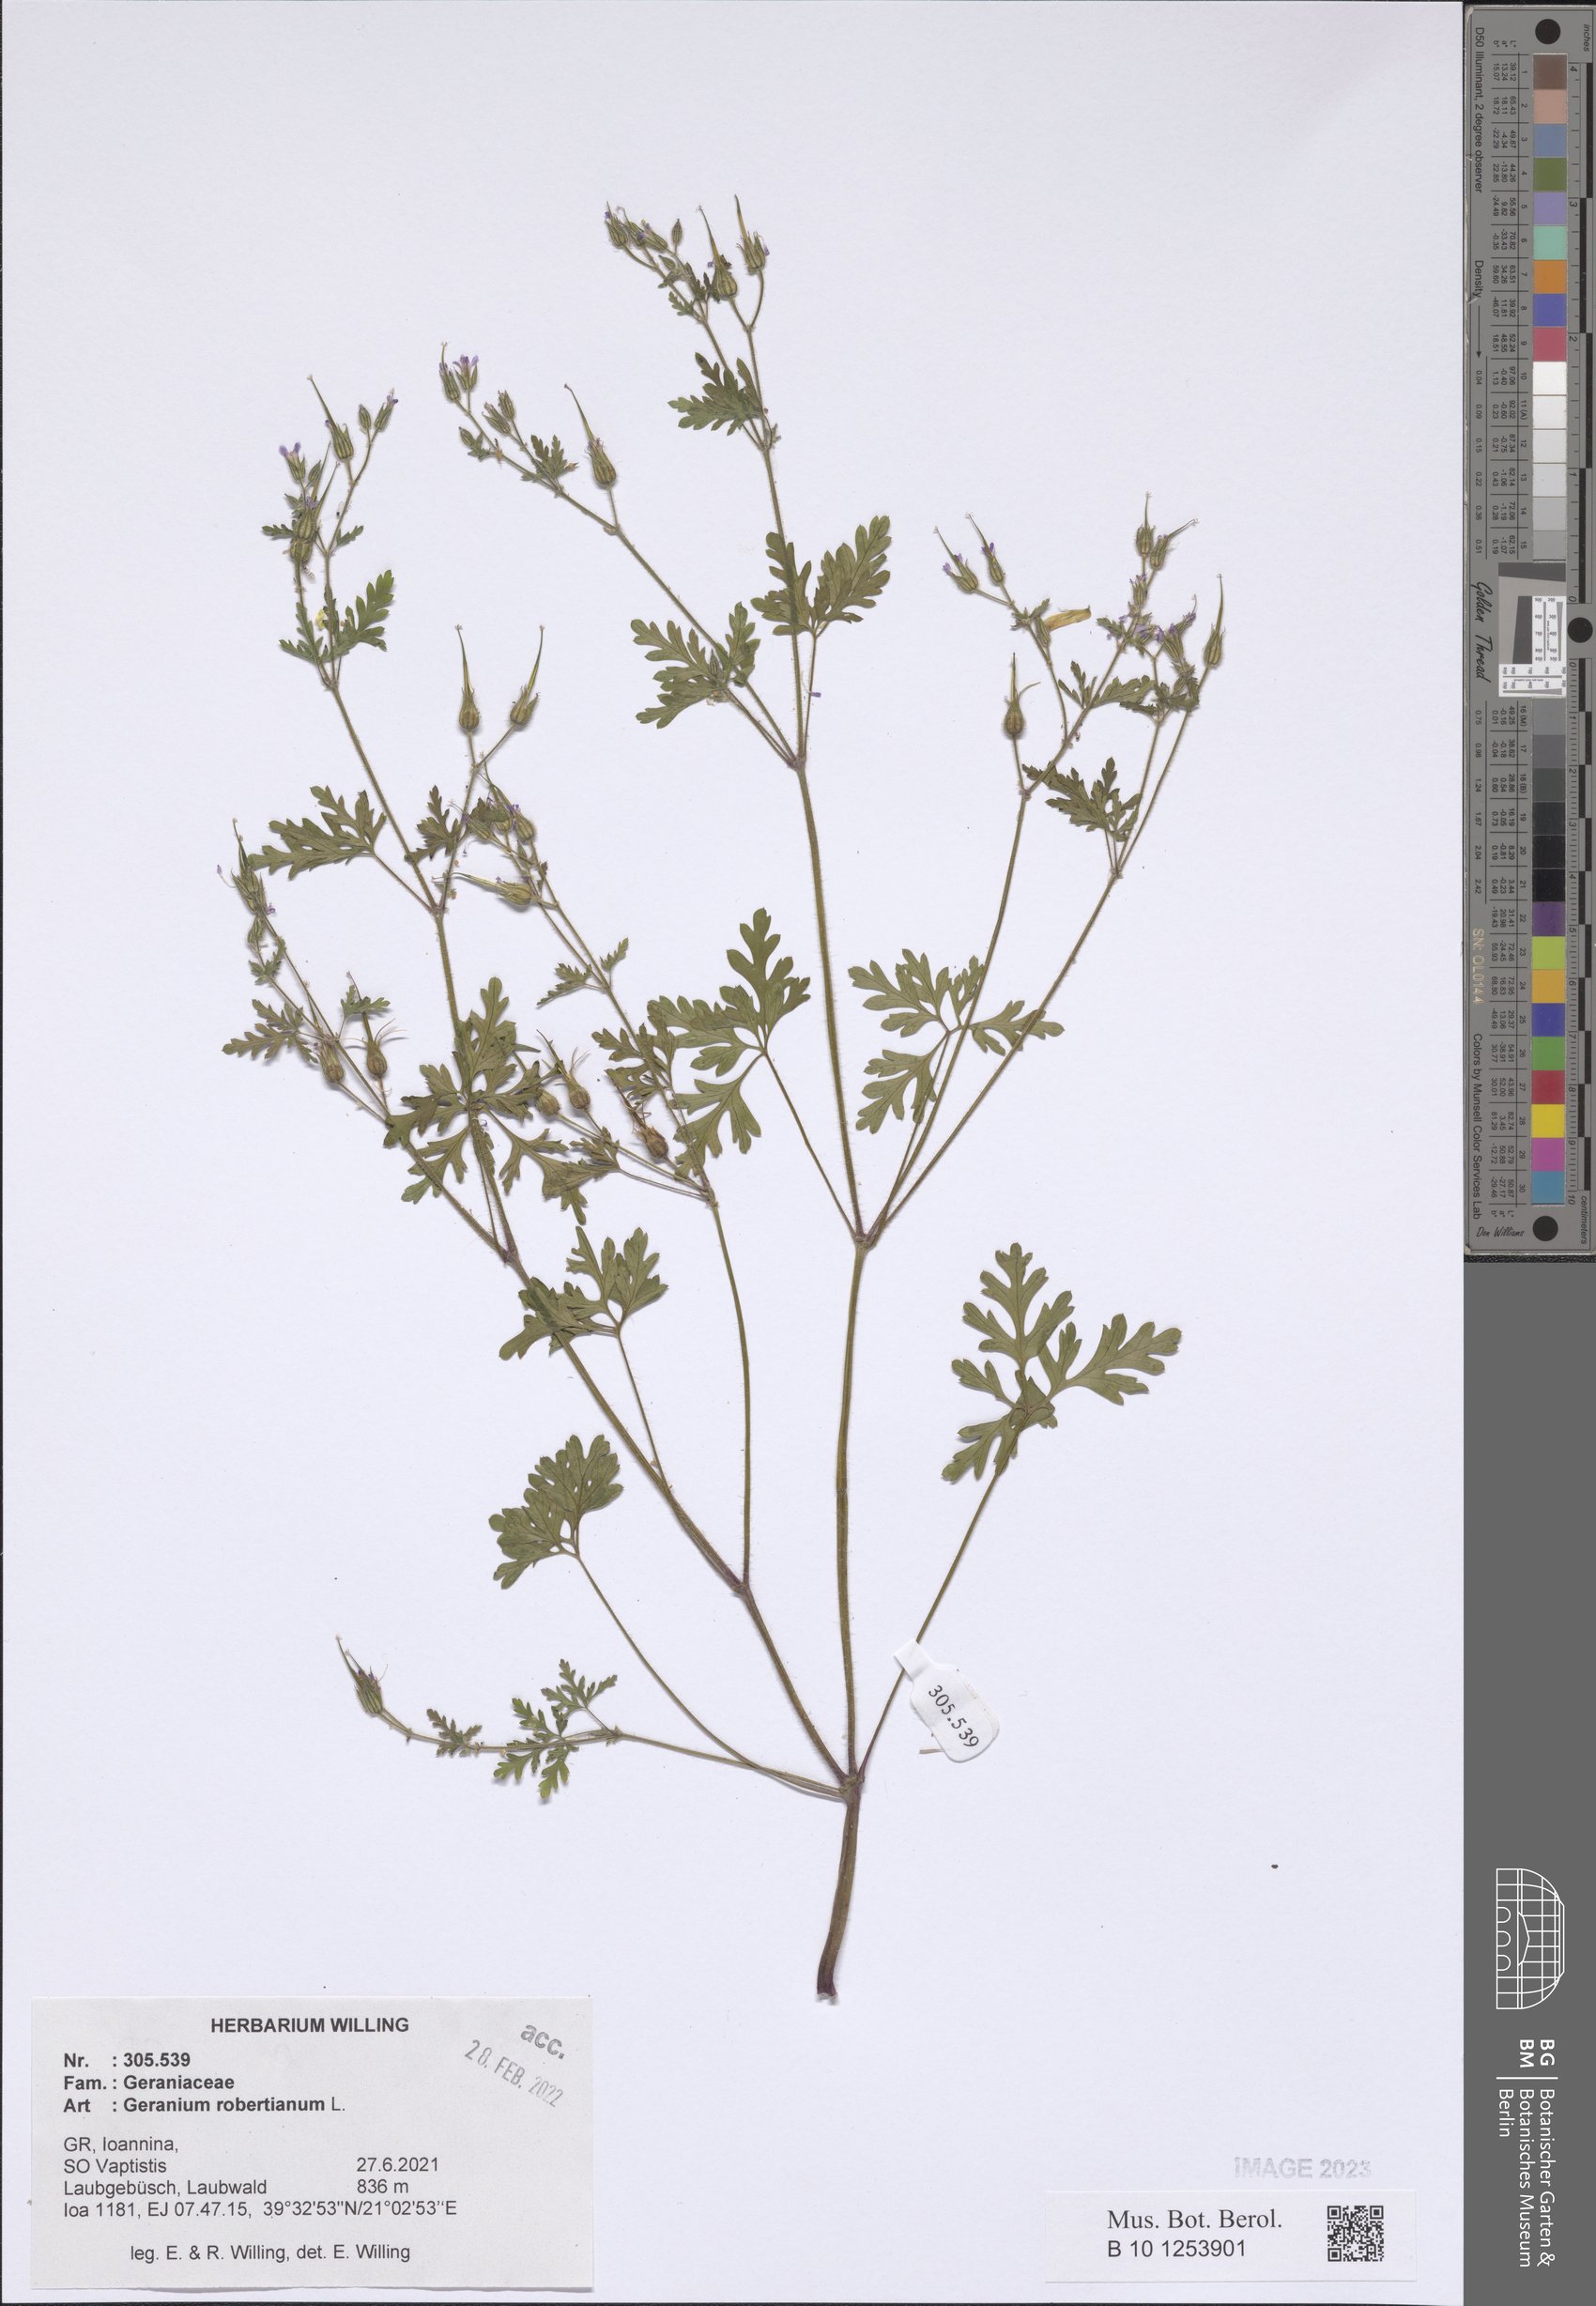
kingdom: Plantae
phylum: Tracheophyta
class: Magnoliopsida
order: Geraniales
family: Geraniaceae
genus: Geranium
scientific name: Geranium robertianum
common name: Herb-robert
